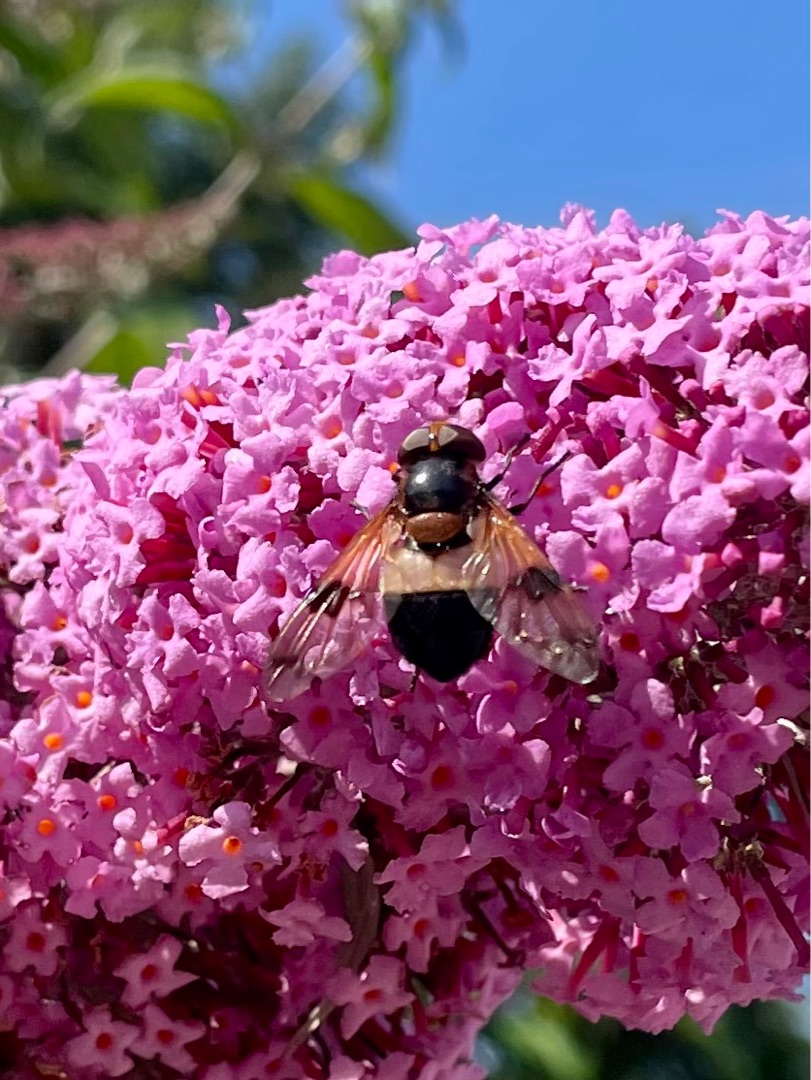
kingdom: Animalia
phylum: Arthropoda
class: Insecta
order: Diptera
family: Syrphidae
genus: Volucella
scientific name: Volucella pellucens
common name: Hvidbåndet humlesvirreflue
